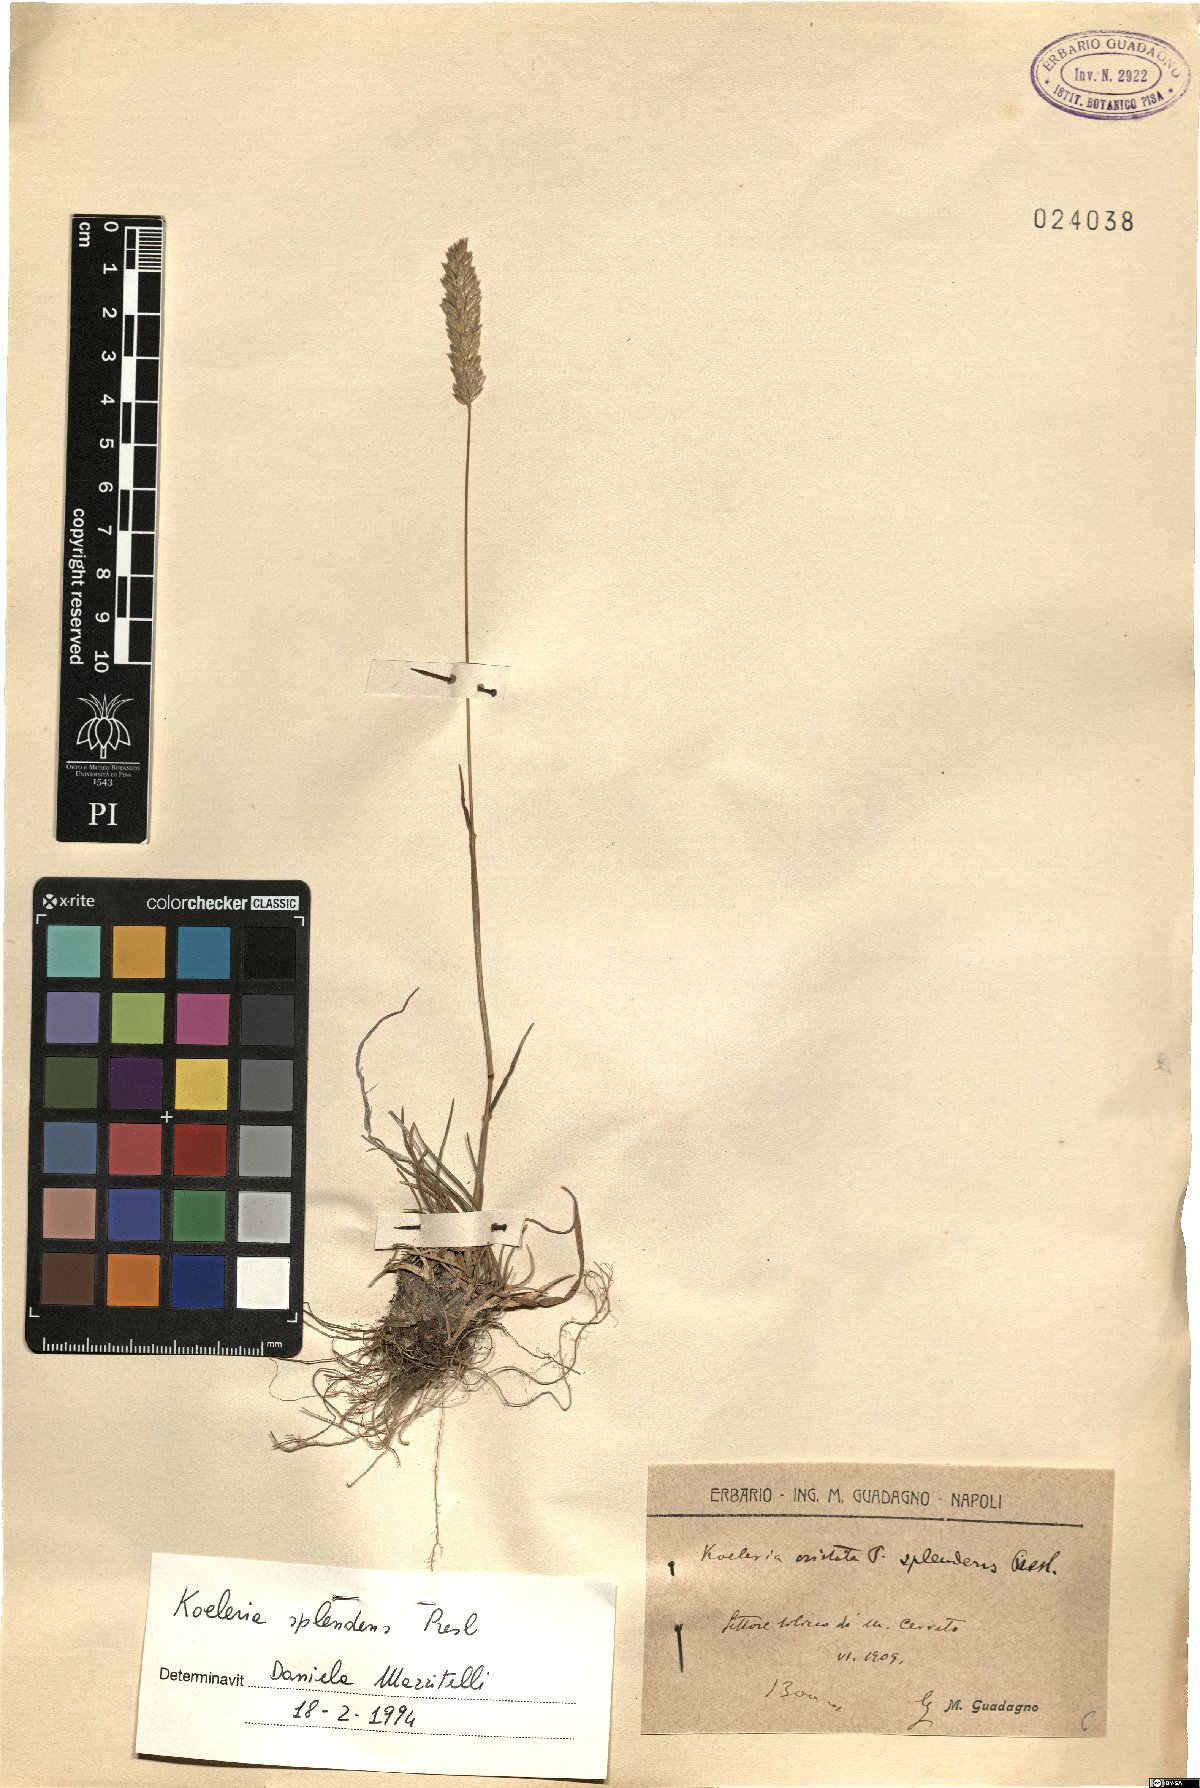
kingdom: Plantae
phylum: Tracheophyta
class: Liliopsida
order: Poales
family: Poaceae
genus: Koeleria
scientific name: Koeleria splendens
